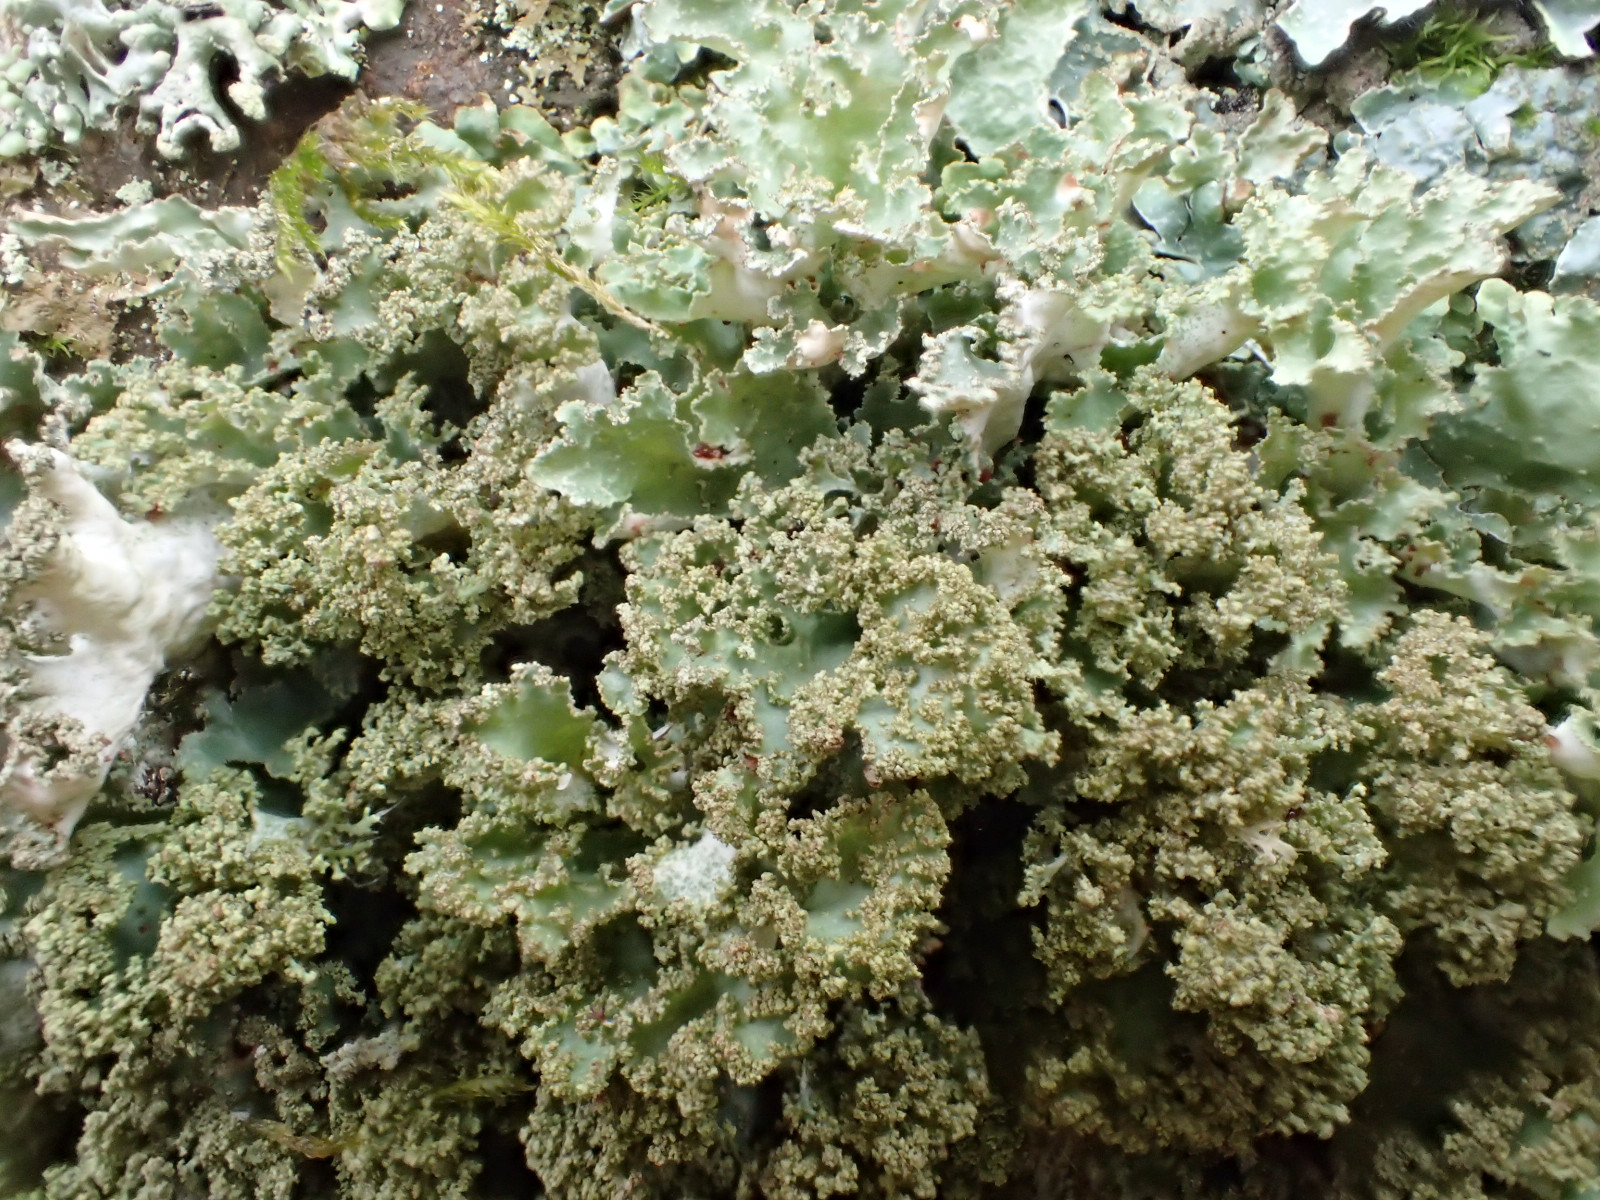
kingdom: Fungi
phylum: Ascomycota
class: Lecanoromycetes
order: Lecanorales
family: Parmeliaceae
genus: Platismatia
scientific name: Platismatia glauca
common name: blågrå papirlav
